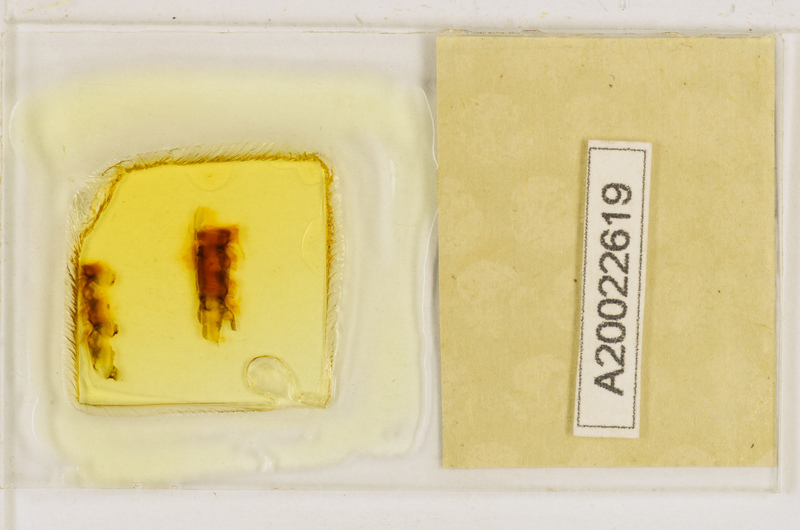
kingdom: Animalia
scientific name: Animalia
